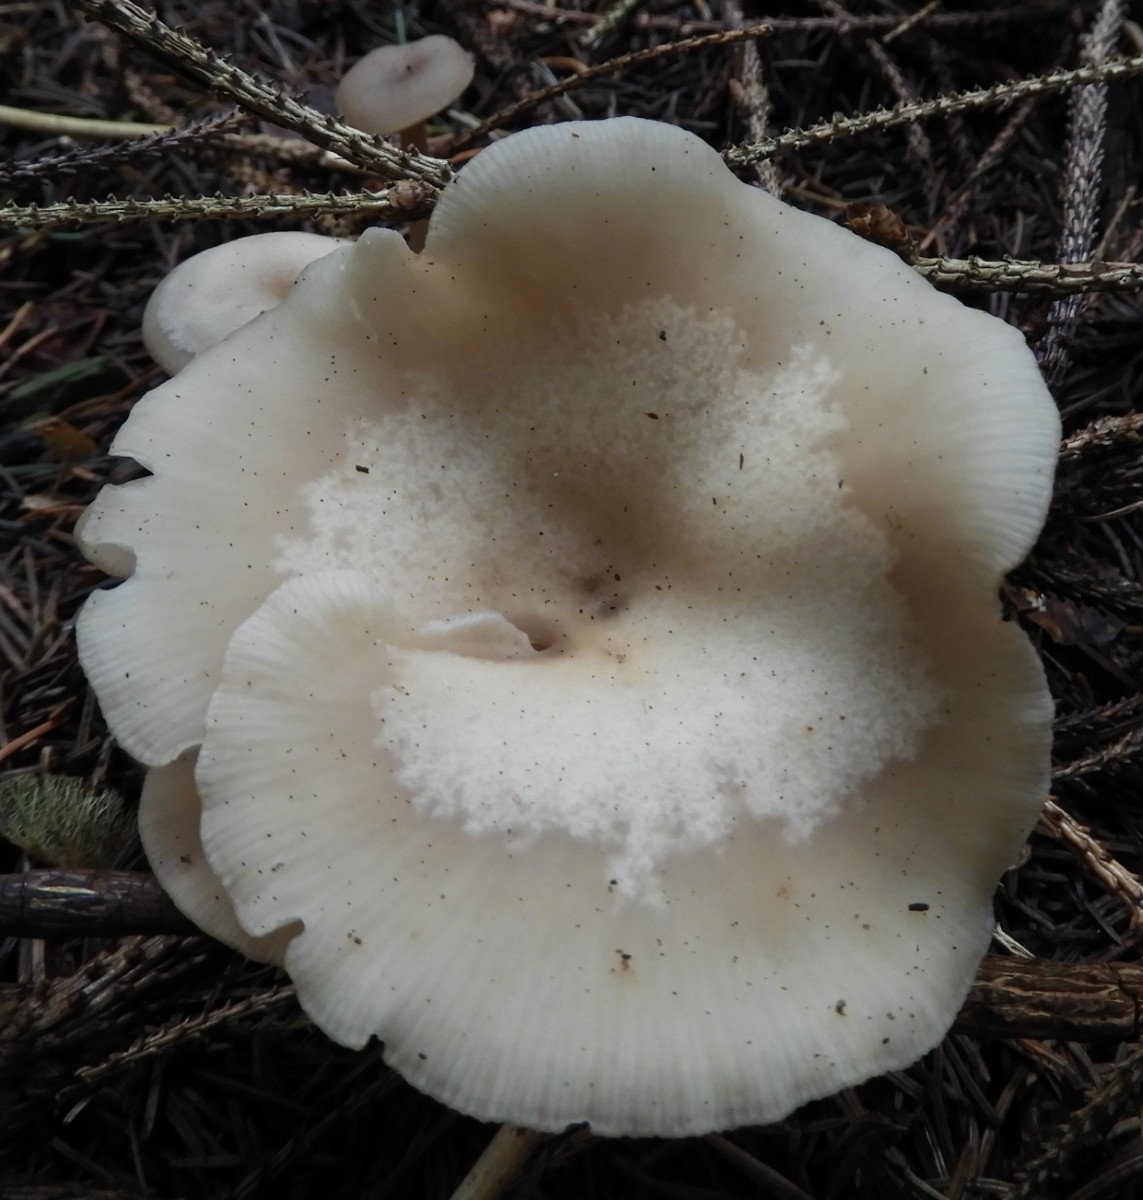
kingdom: Fungi
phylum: Basidiomycota
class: Agaricomycetes
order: Agaricales
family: Tricholomataceae
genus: Clitocybe
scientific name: Clitocybe metachroa
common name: grå tragthat
